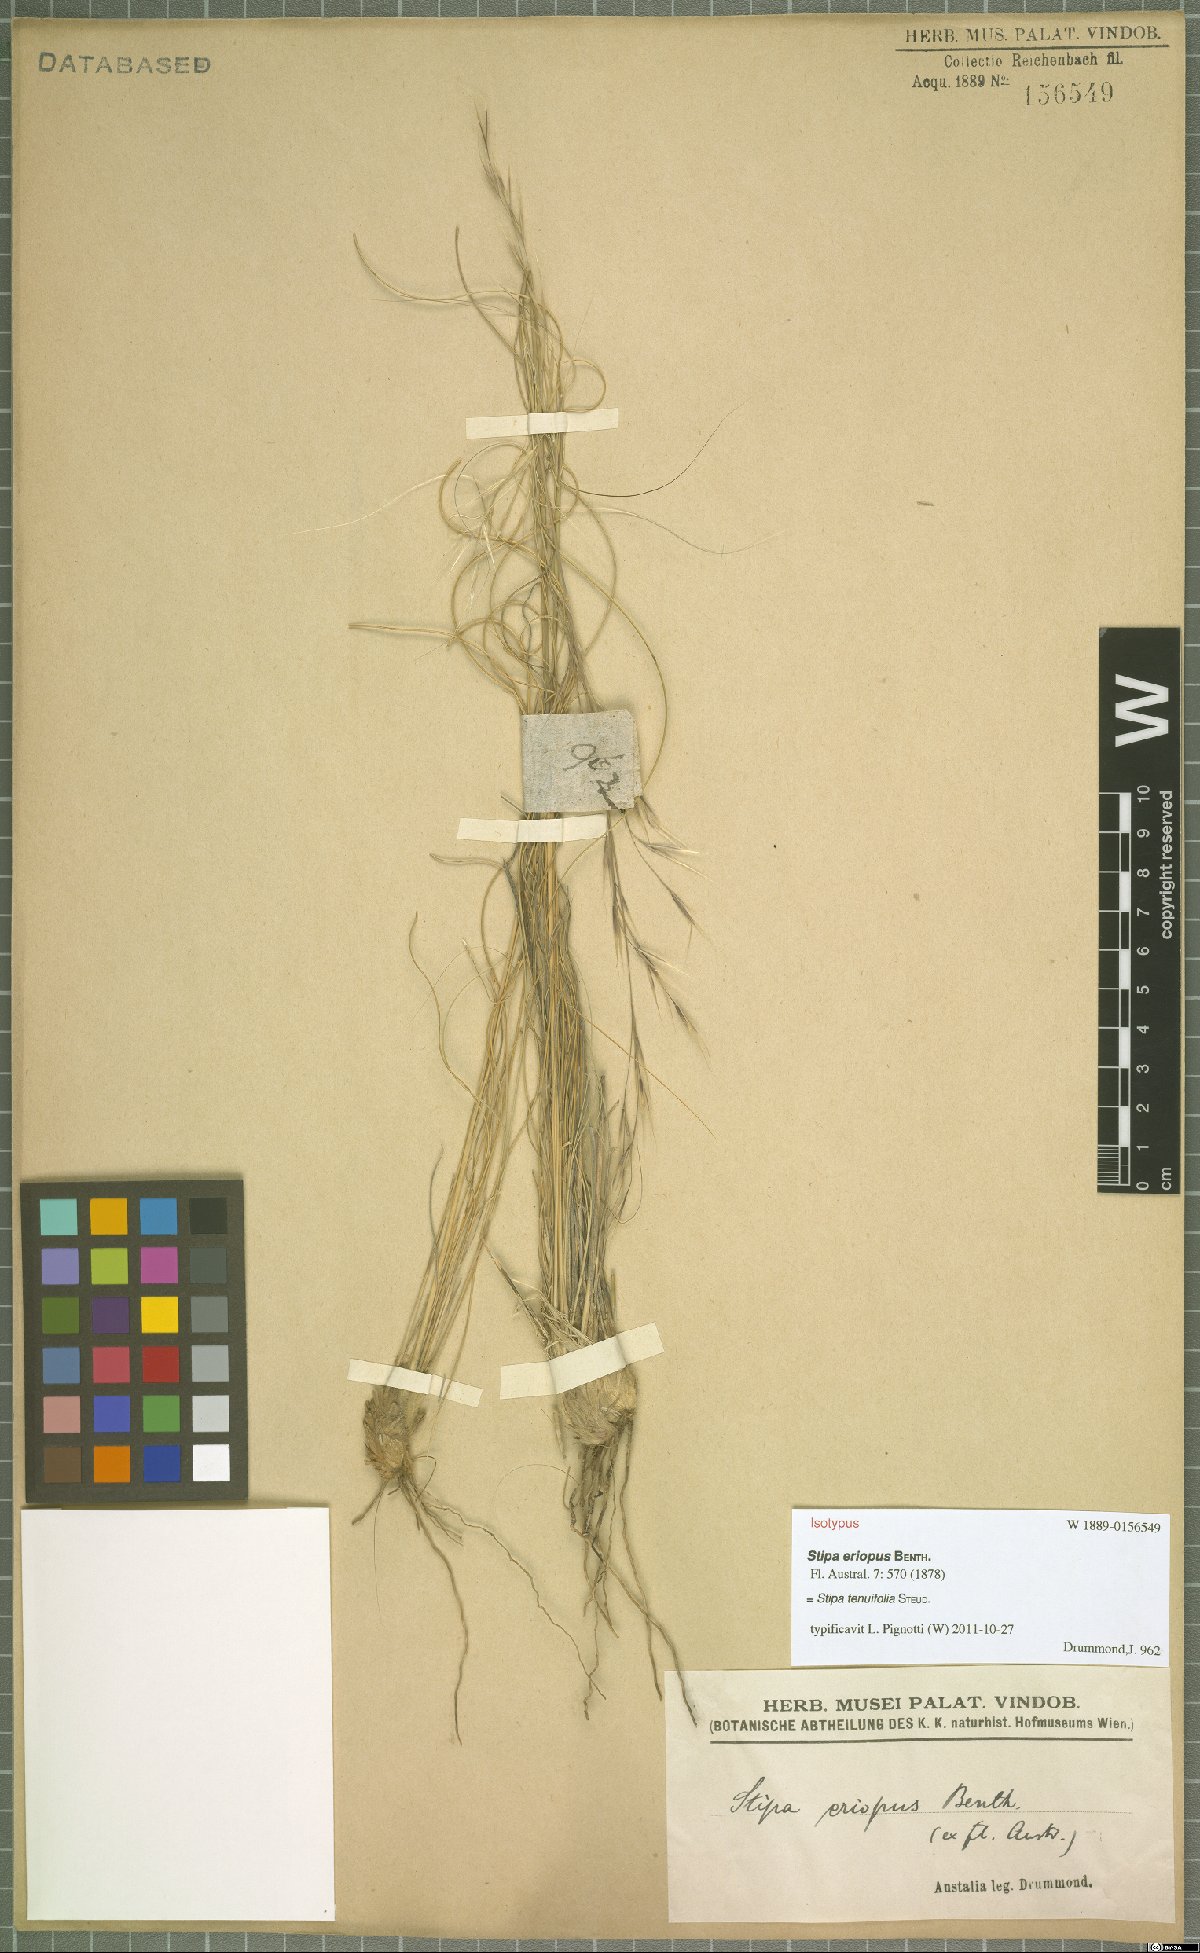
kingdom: Plantae
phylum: Tracheophyta
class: Liliopsida
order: Poales
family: Poaceae
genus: Austrostipa
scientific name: Austrostipa scabra
